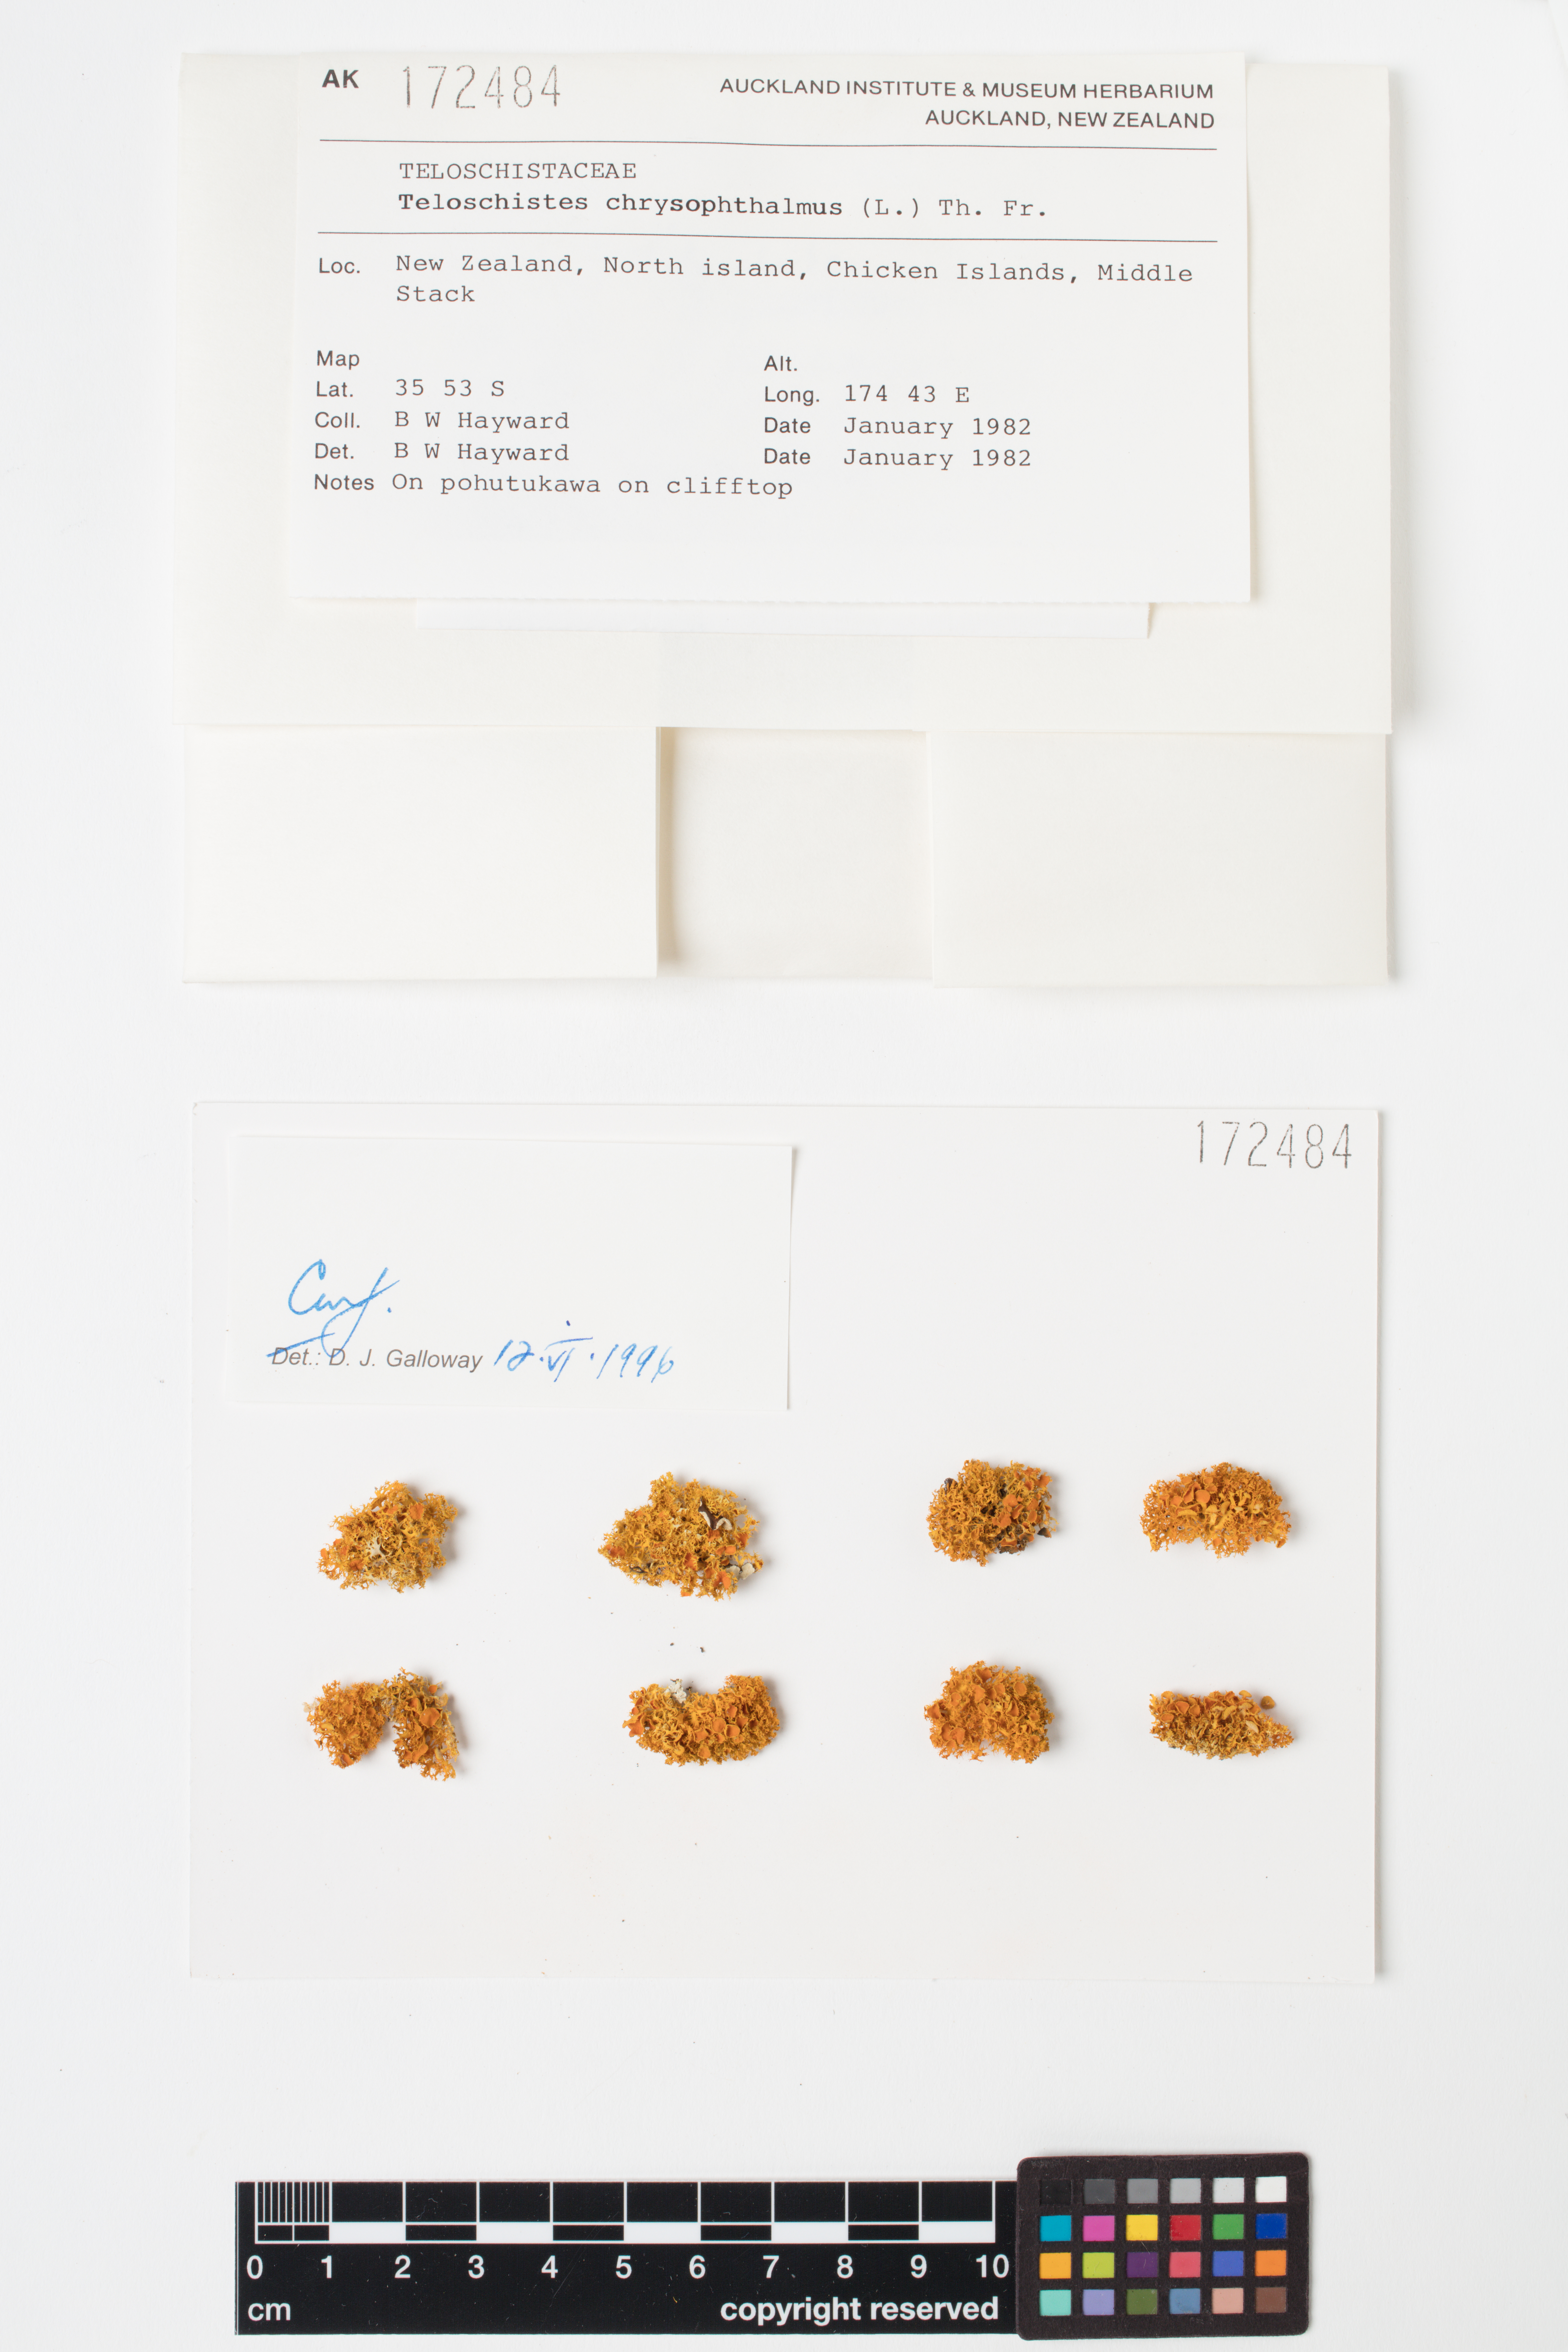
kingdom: Fungi
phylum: Ascomycota
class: Lecanoromycetes
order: Teloschistales
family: Teloschistaceae
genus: Niorma
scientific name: Niorma chrysophthalma
